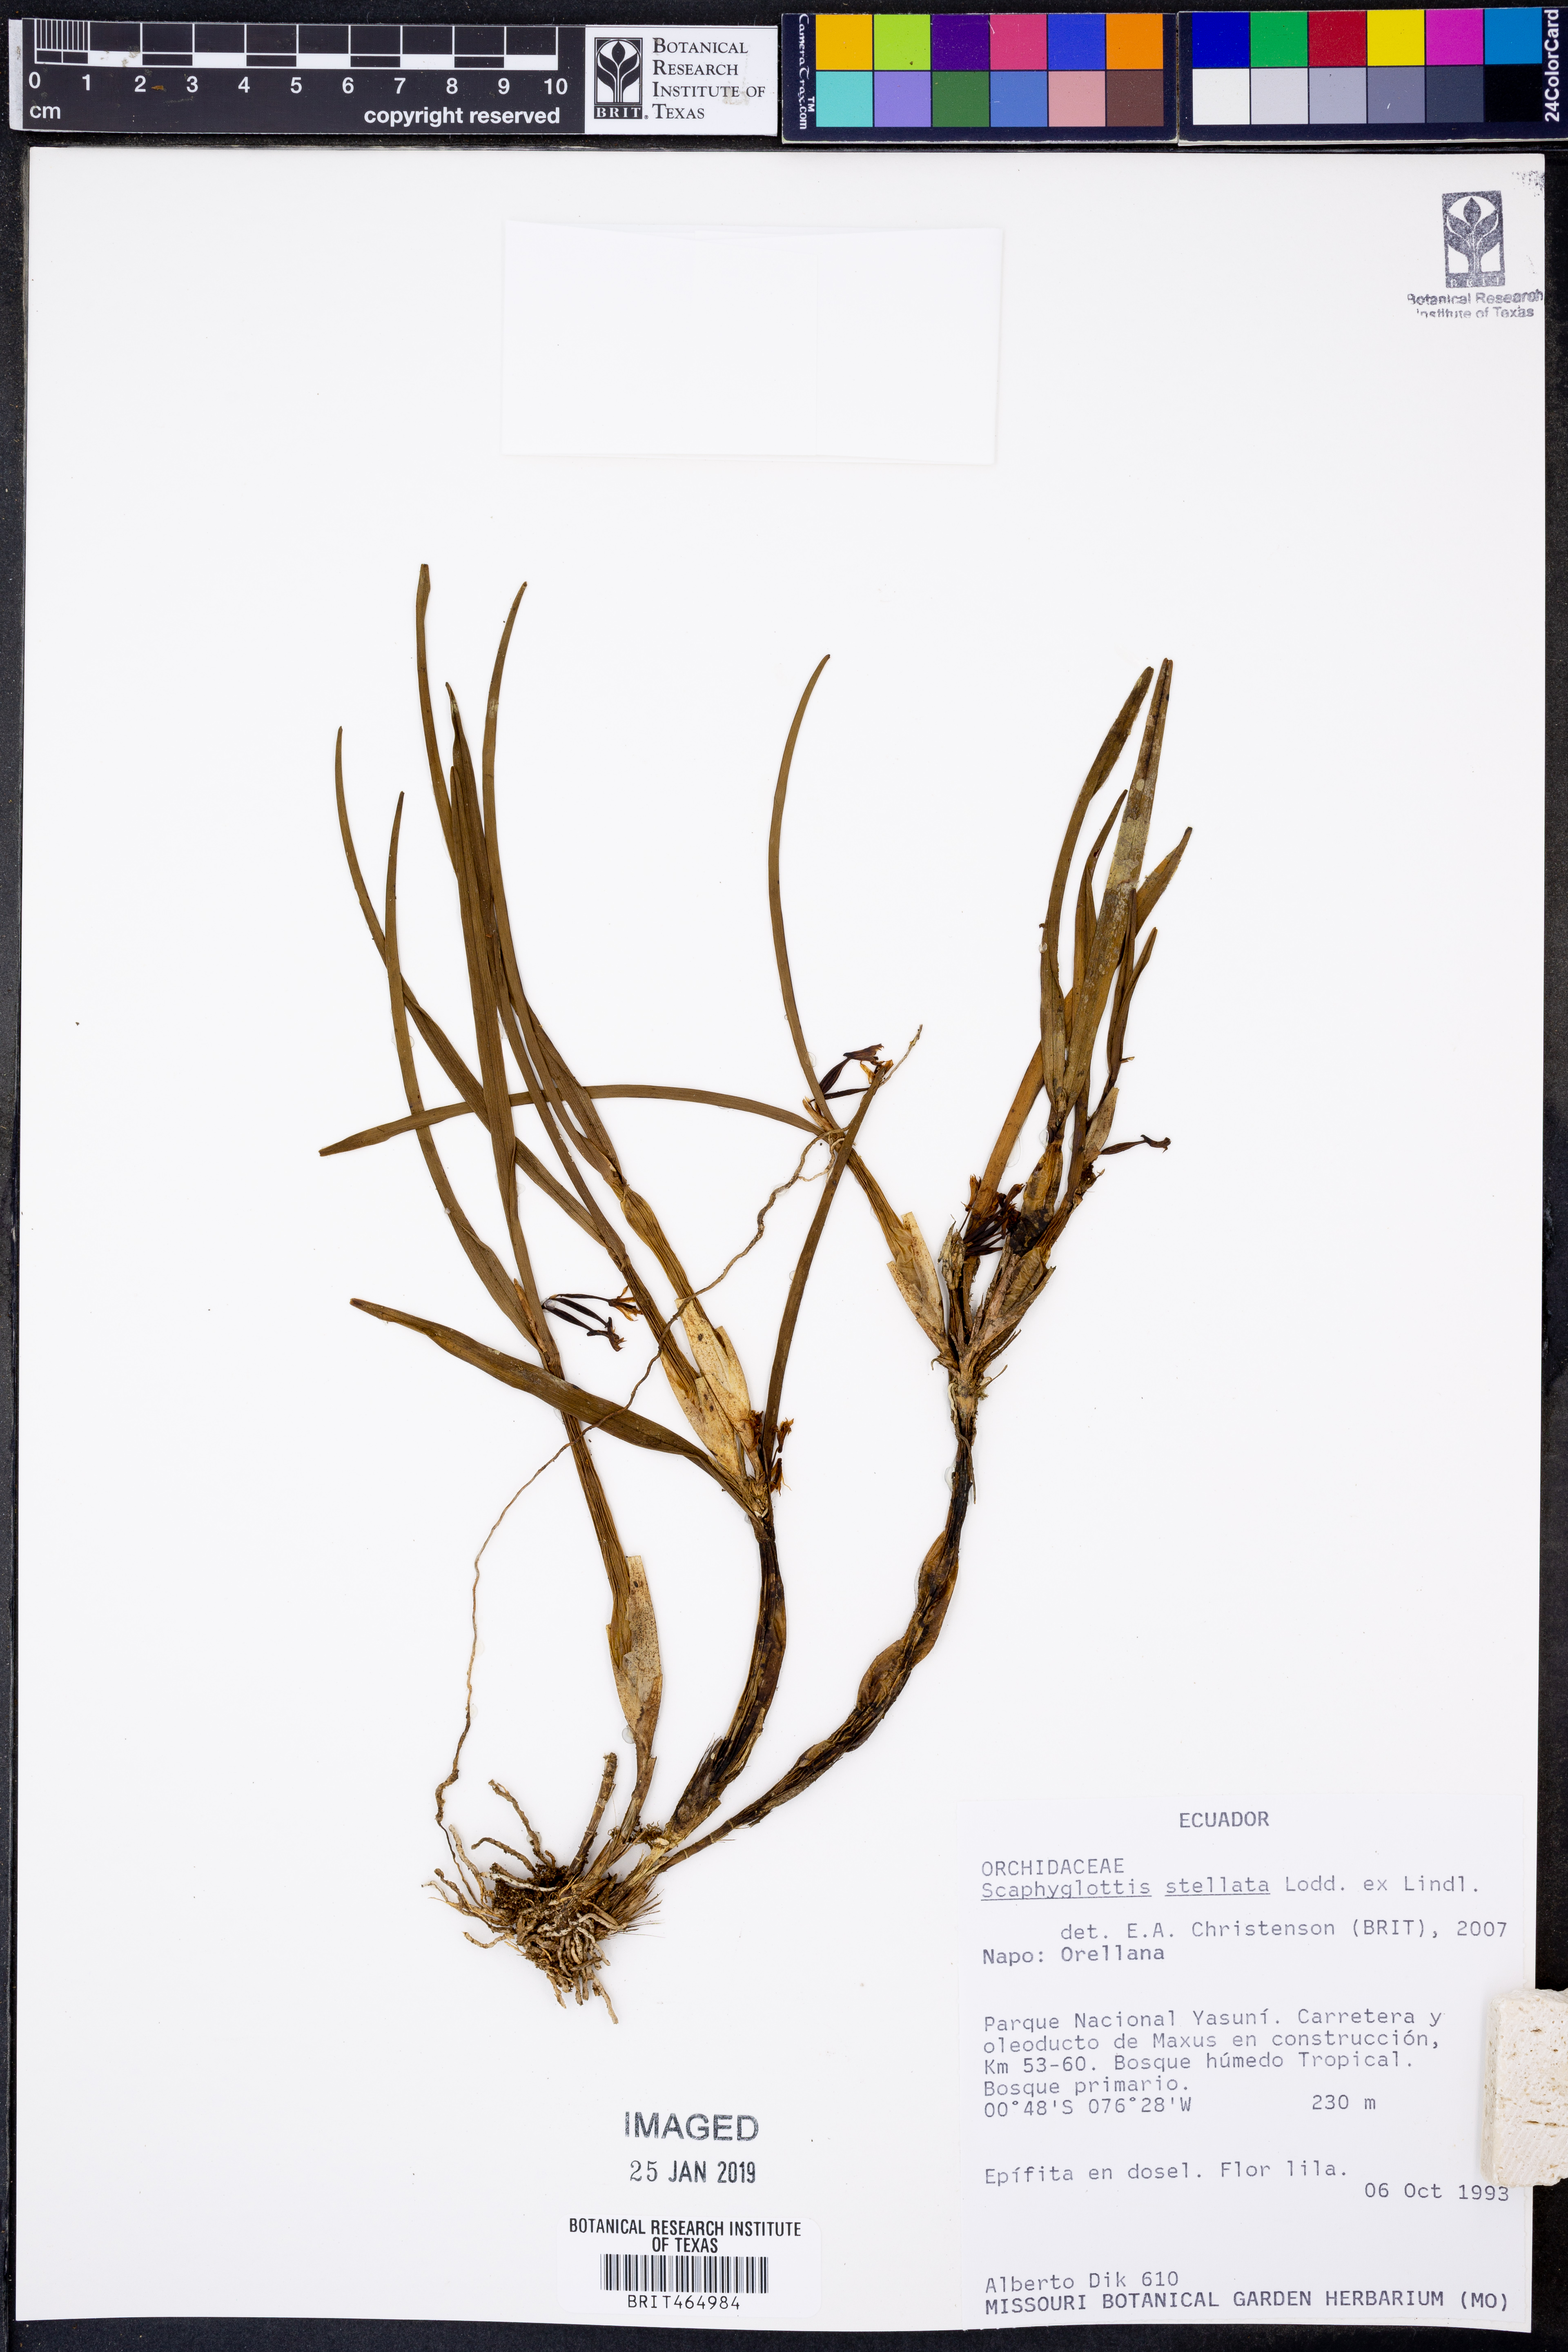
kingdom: Plantae
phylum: Tracheophyta
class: Liliopsida
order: Asparagales
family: Orchidaceae
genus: Scaphyglottis
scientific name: Scaphyglottis stellata
